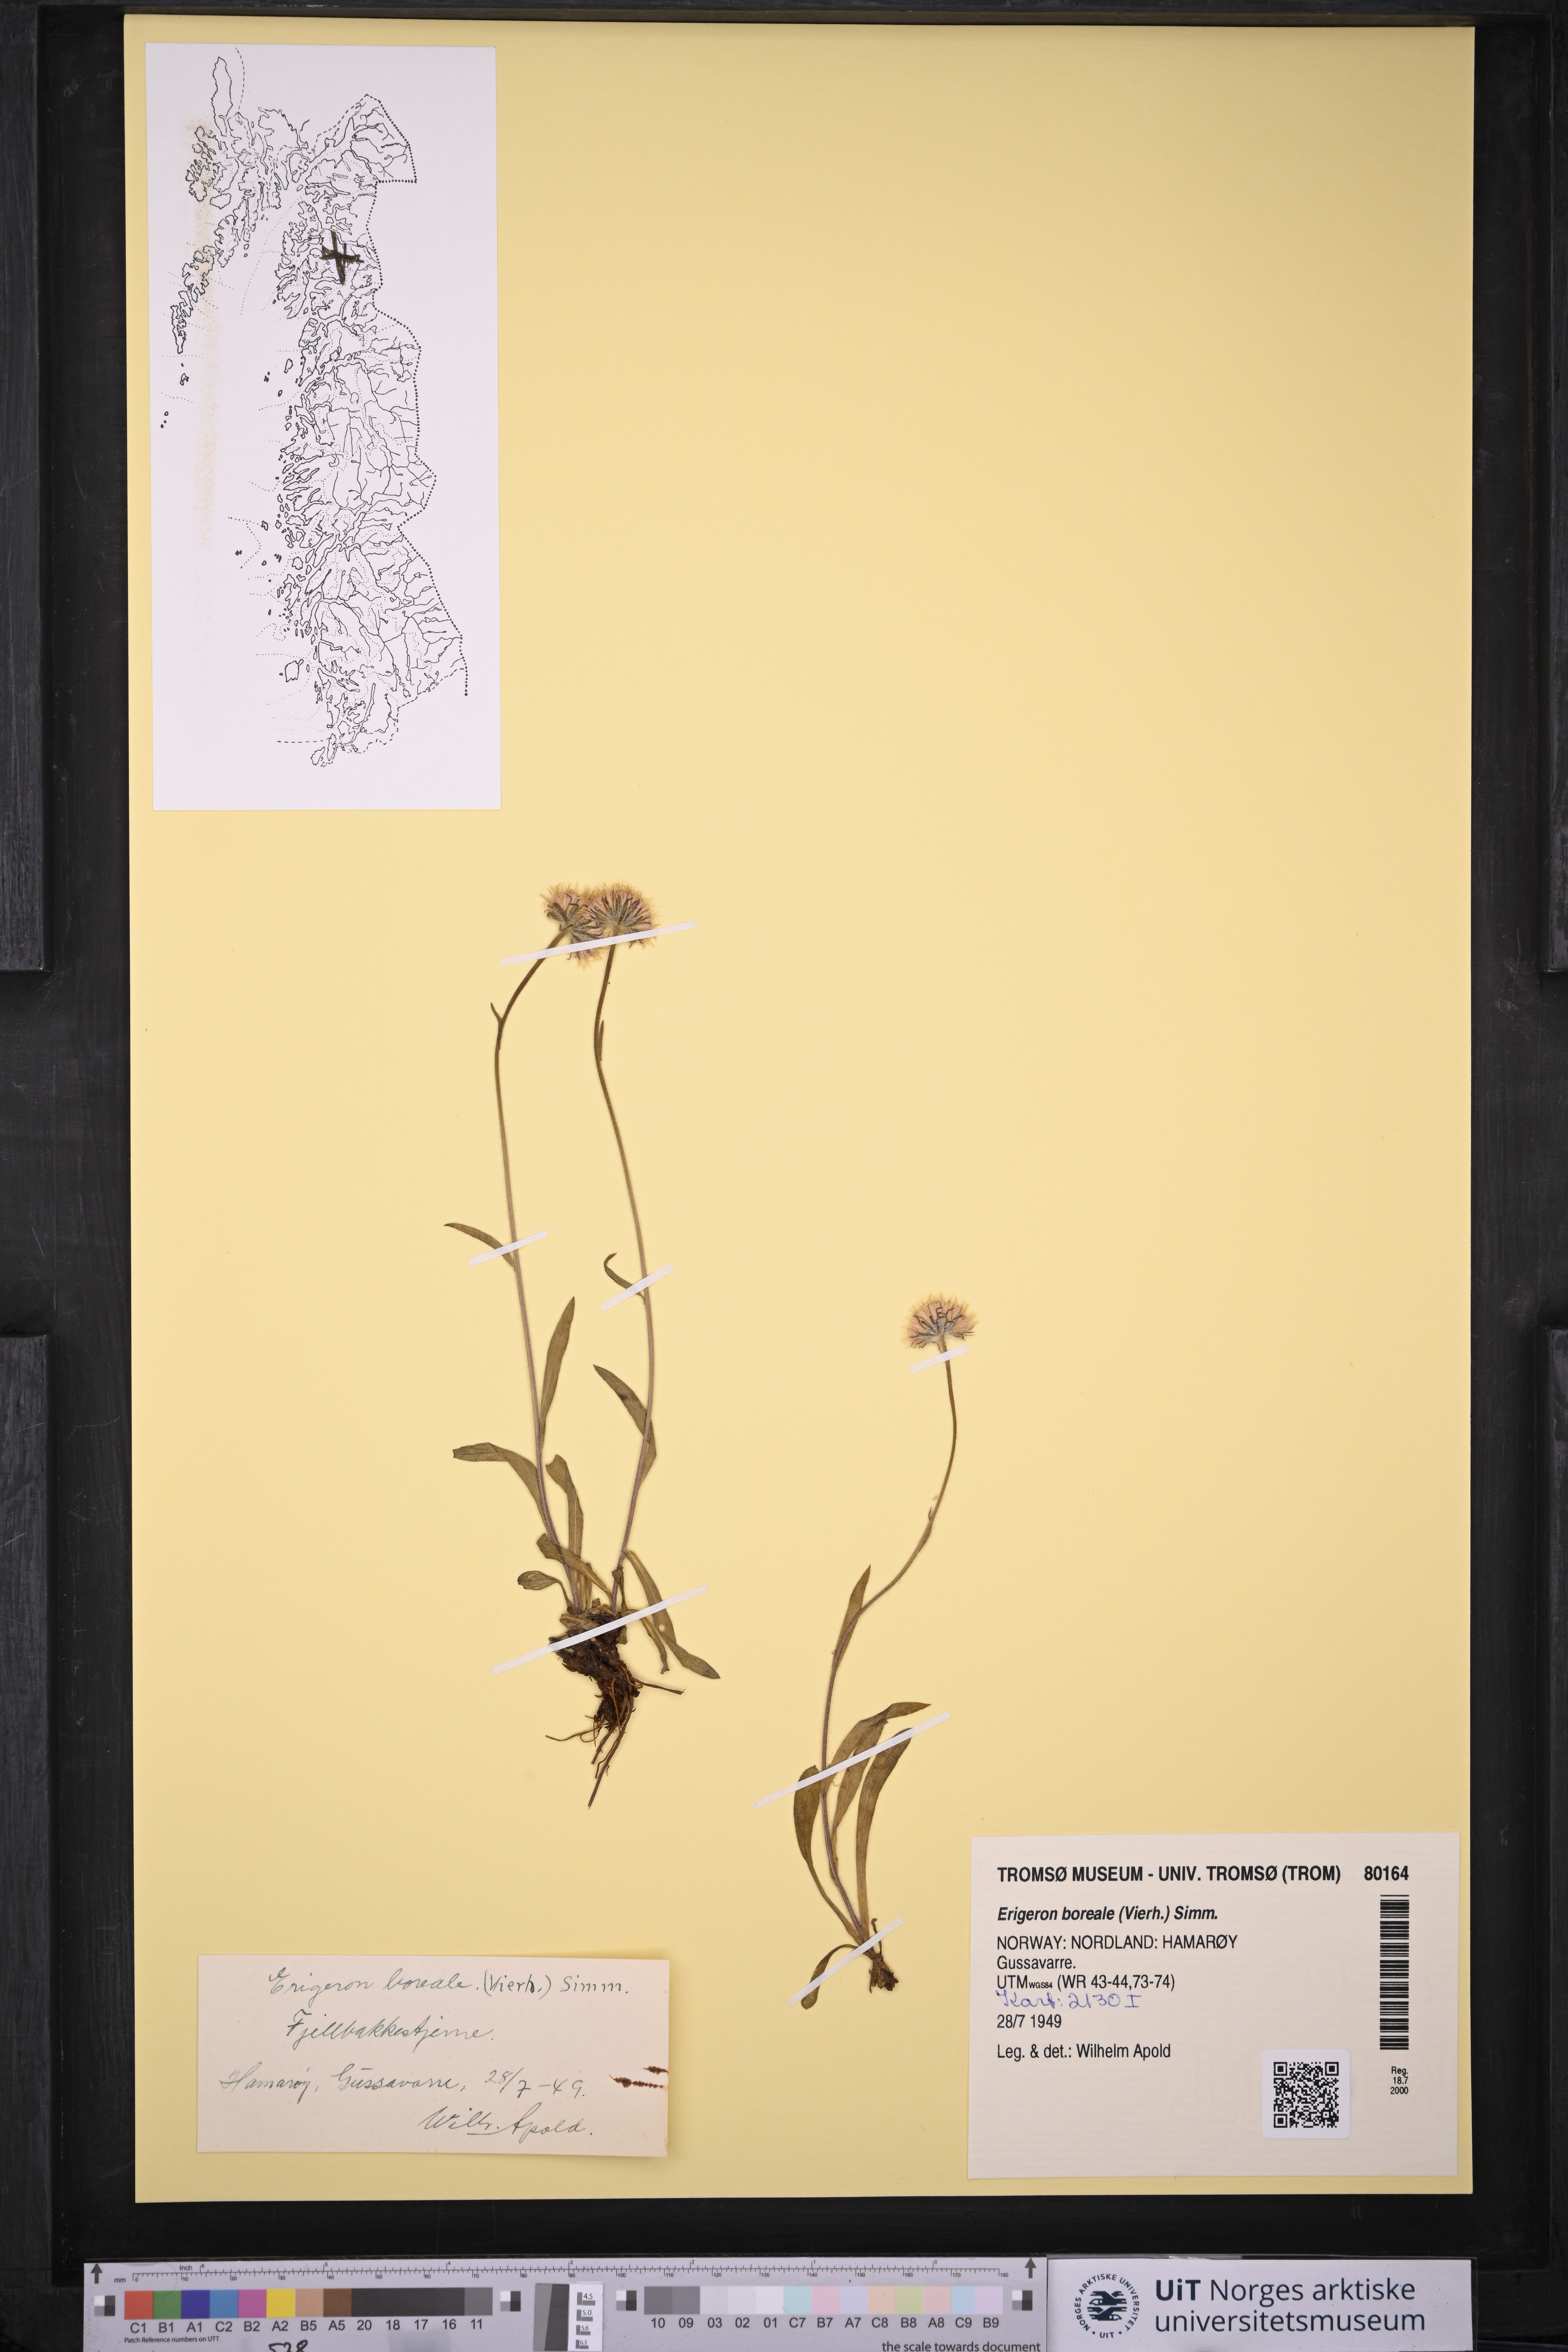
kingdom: Plantae
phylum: Tracheophyta
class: Magnoliopsida
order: Asterales
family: Asteraceae
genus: Erigeron
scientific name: Erigeron borealis
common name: Alpine fleabane
